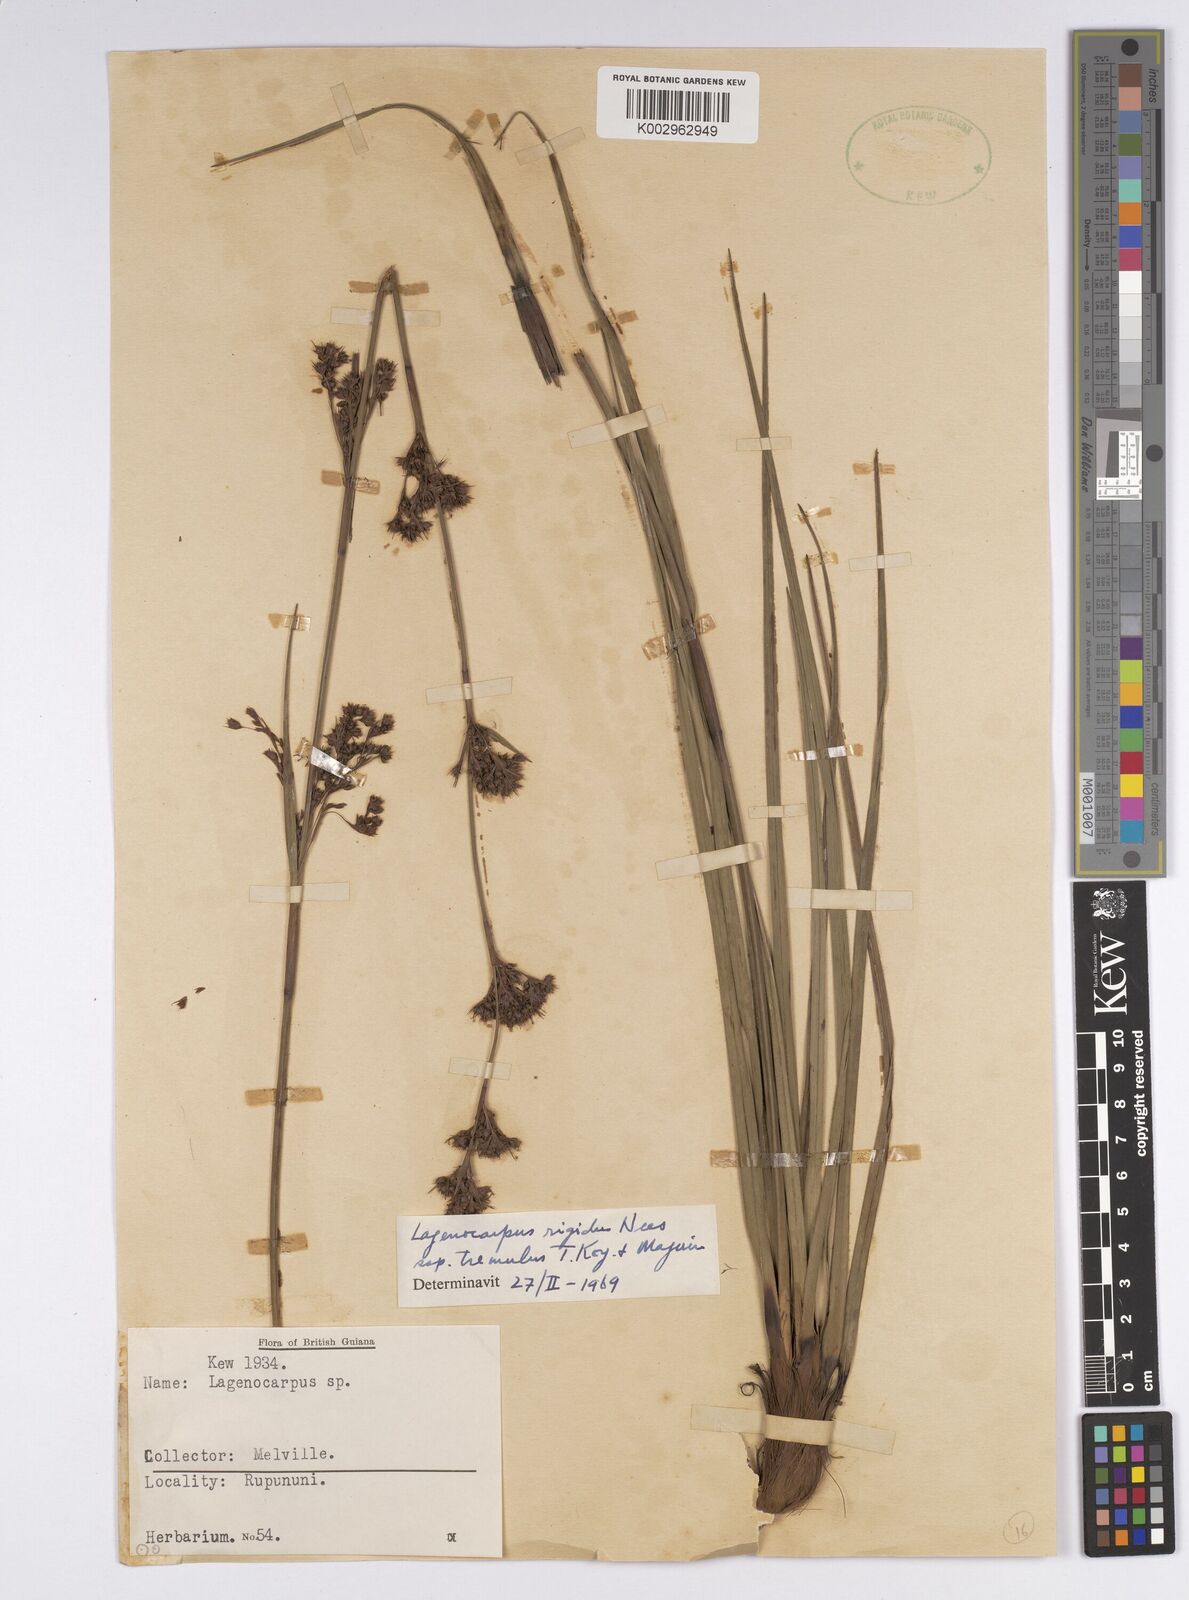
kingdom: Plantae
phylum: Tracheophyta
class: Liliopsida
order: Poales
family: Cyperaceae
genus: Lagenocarpus
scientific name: Lagenocarpus rigidus
